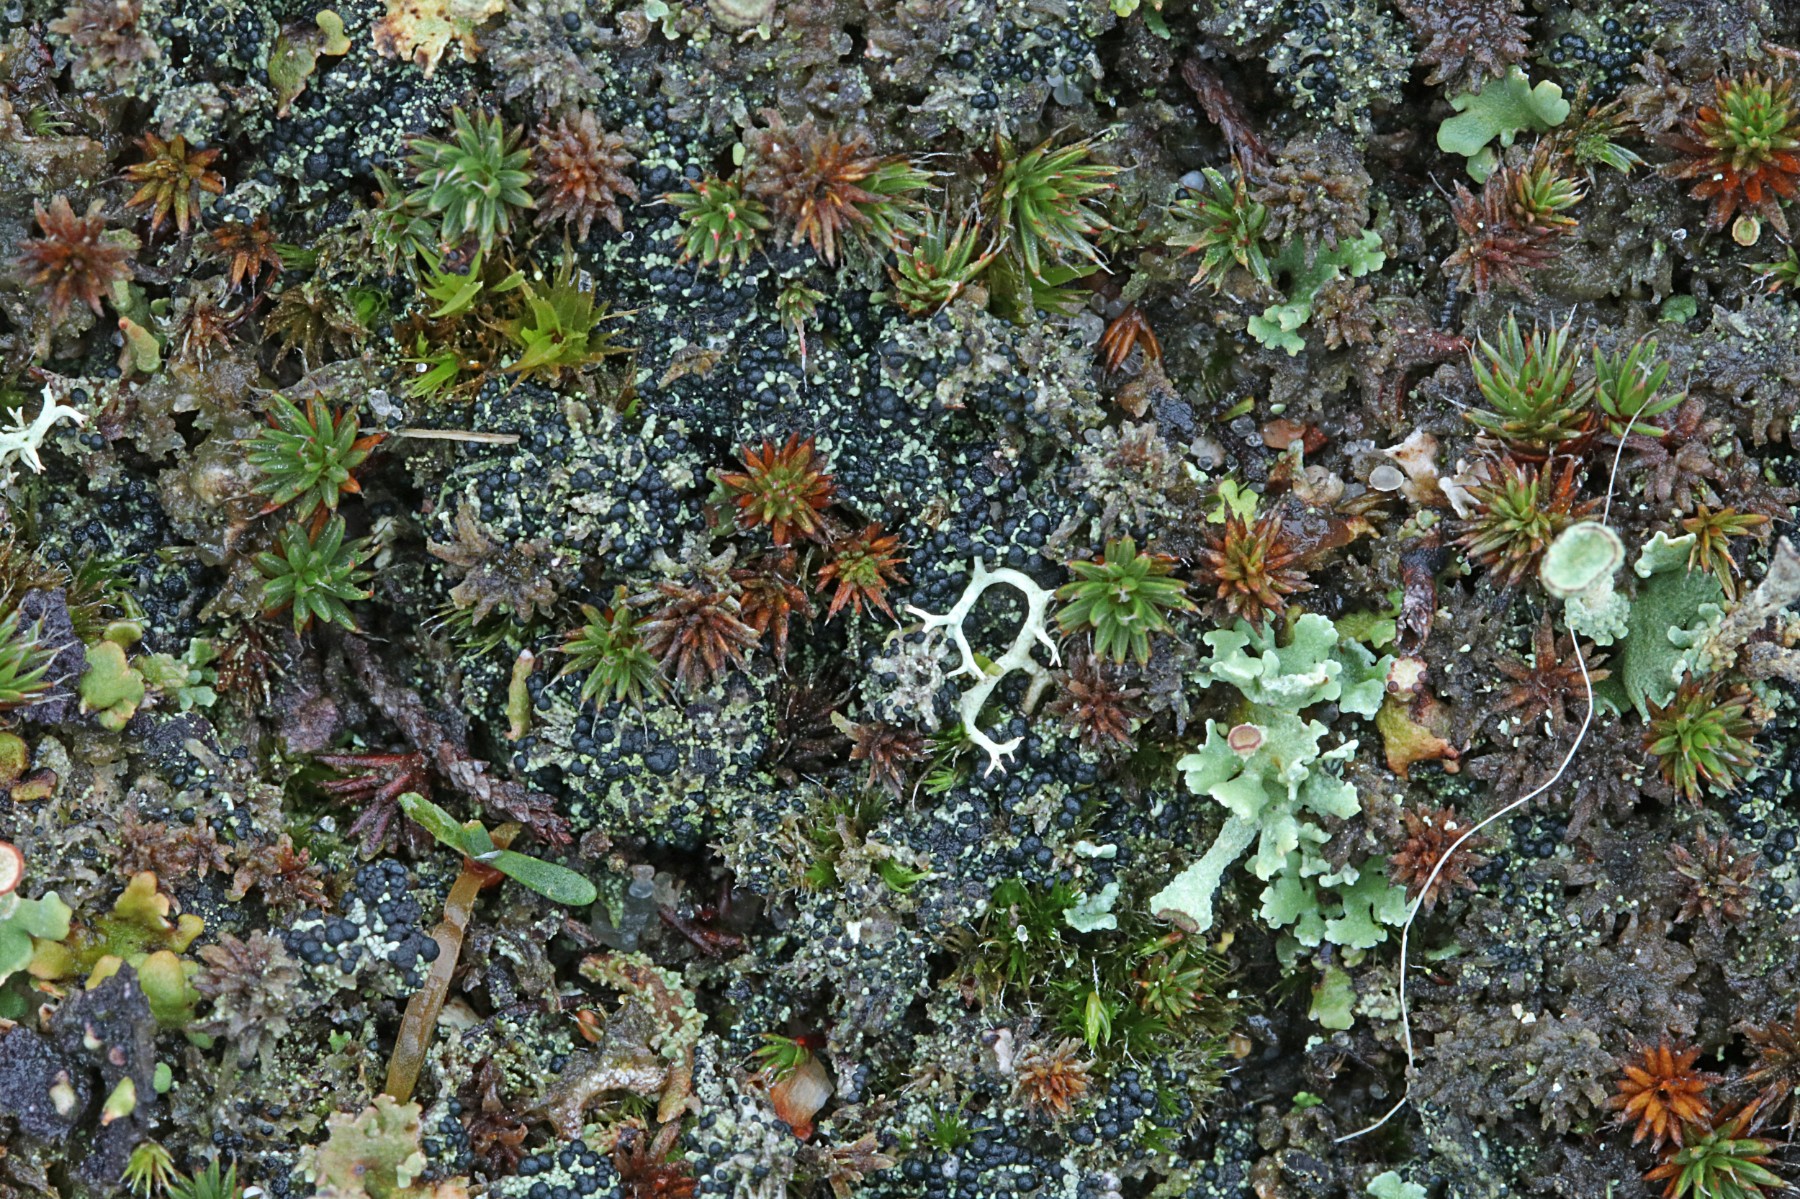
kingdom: Fungi
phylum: Ascomycota
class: Lecanoromycetes
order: Lecanorales
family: Byssolomataceae
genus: Micarea
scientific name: Micarea lignaria
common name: tørve-knaplav
